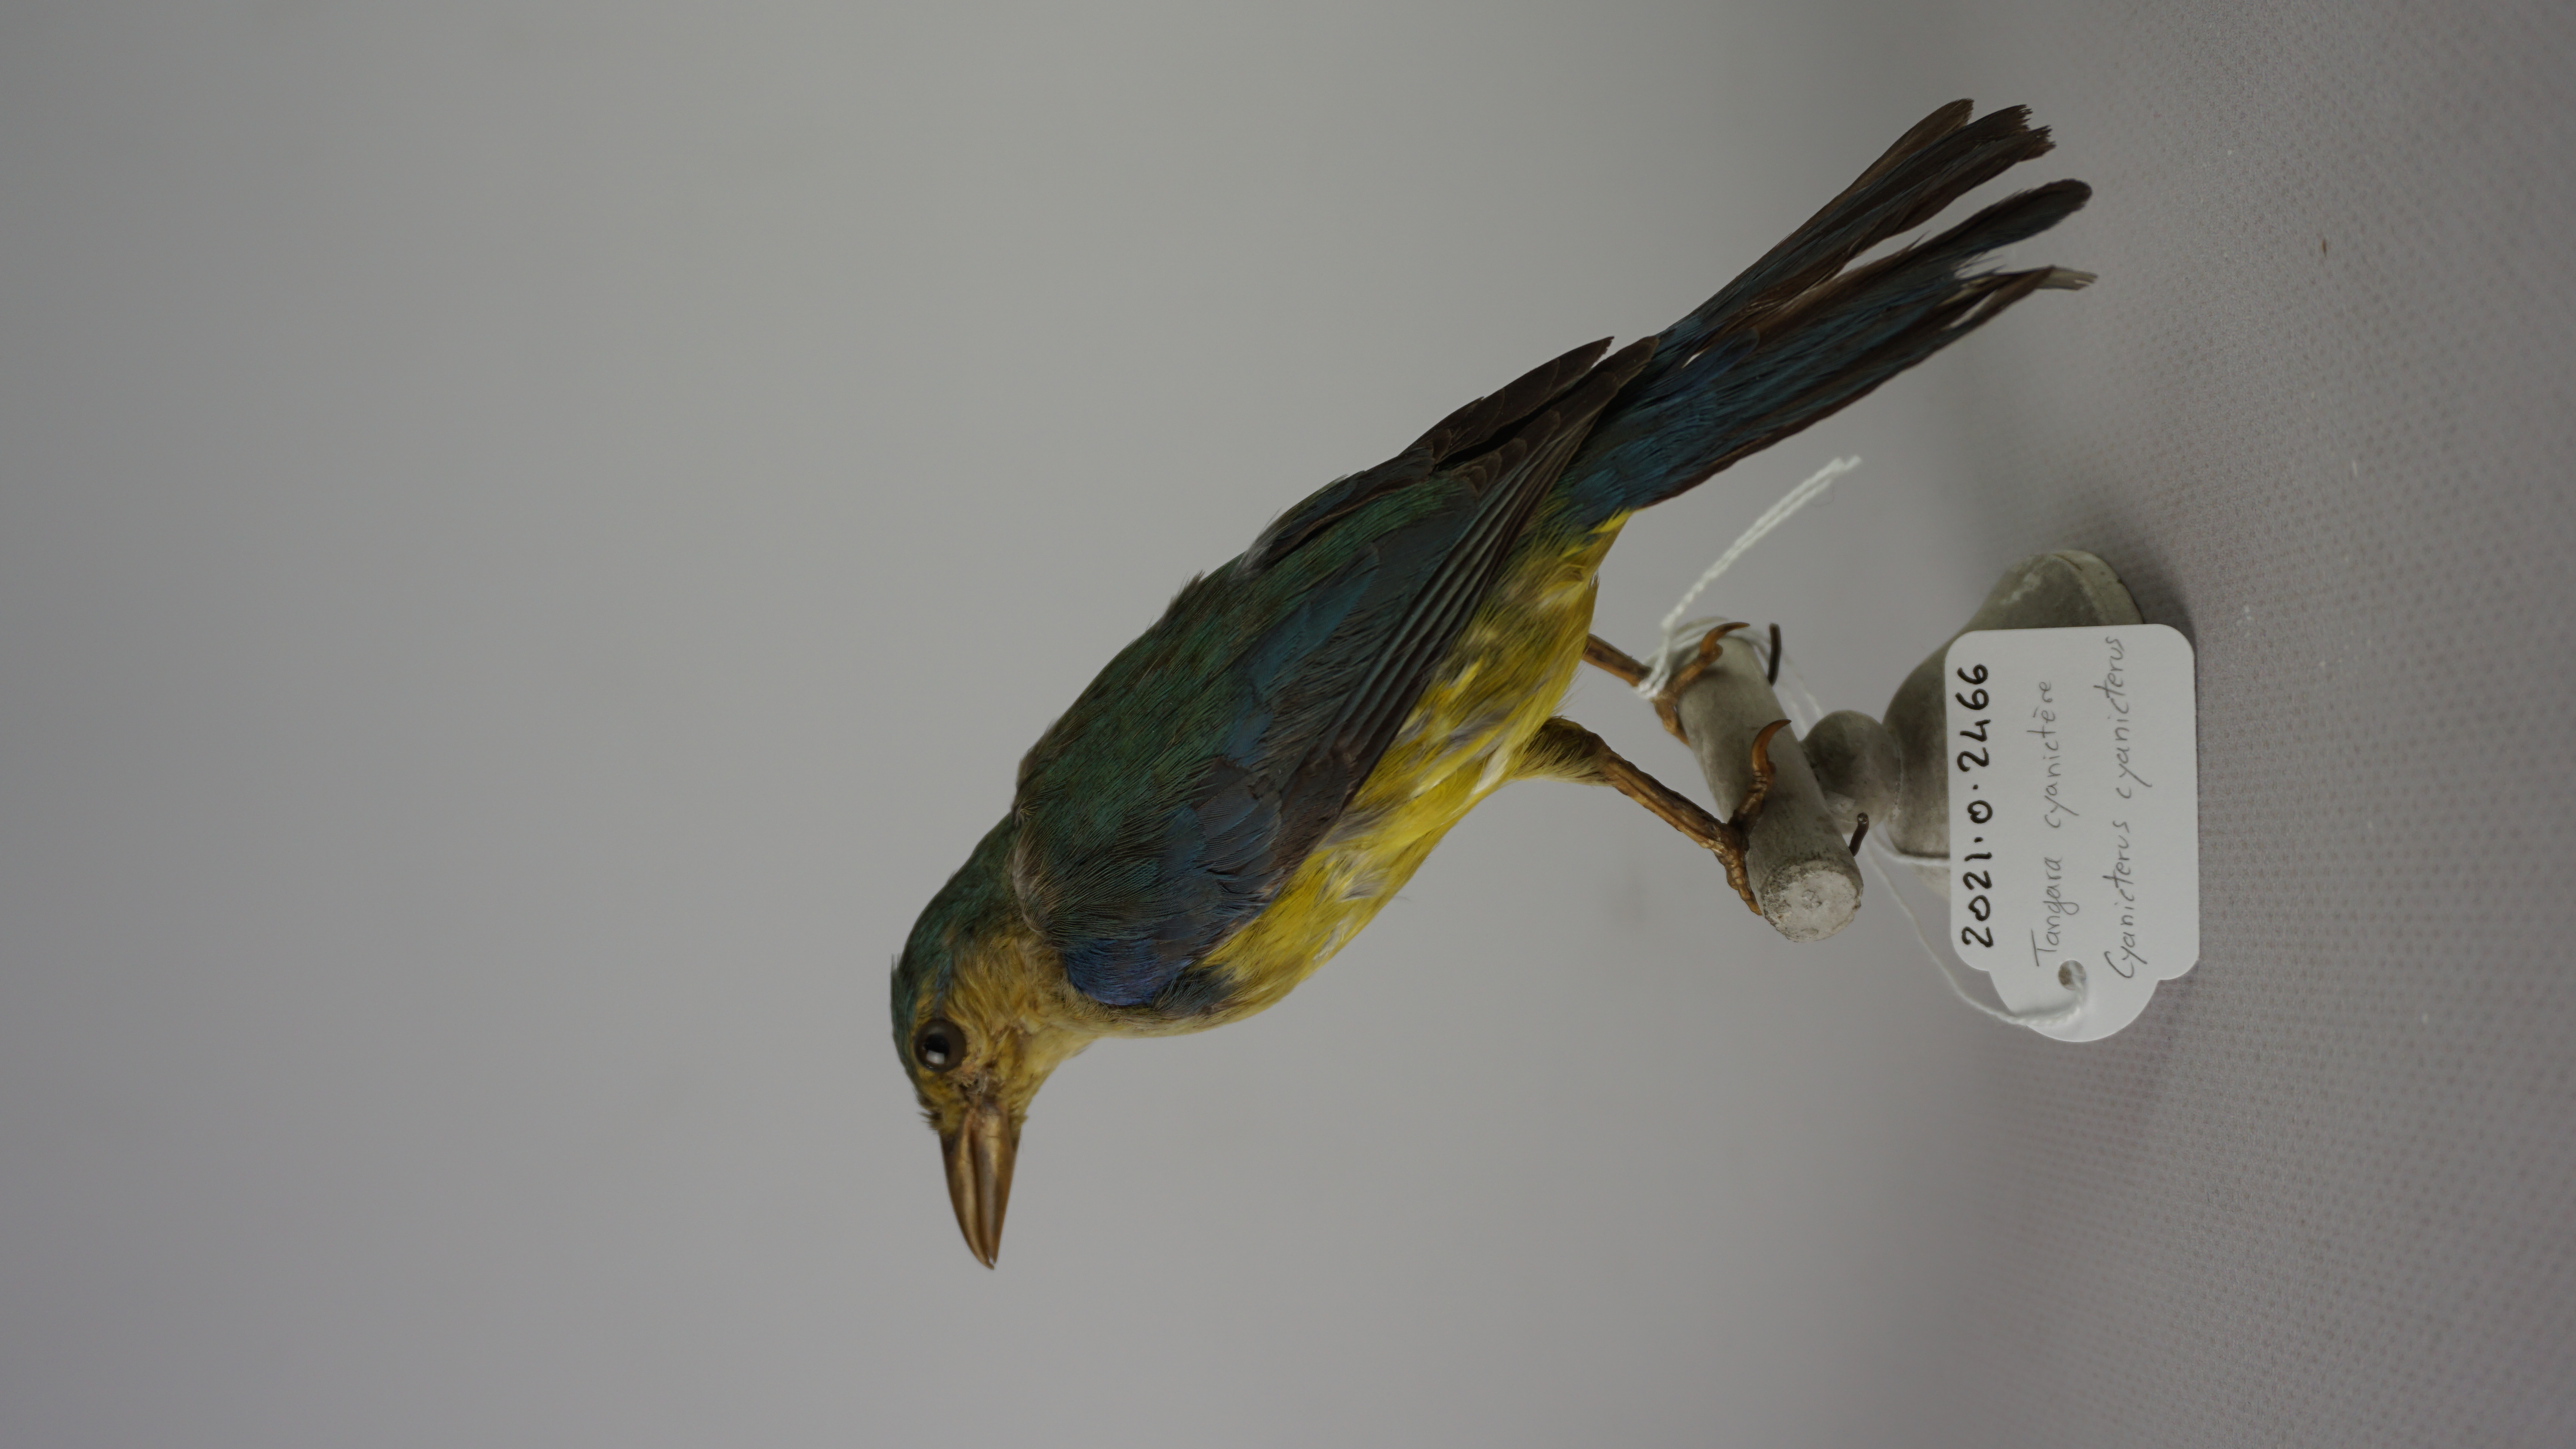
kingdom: Animalia
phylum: Chordata
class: Aves
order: Passeriformes
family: Thraupidae
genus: Cyanicterus
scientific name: Cyanicterus cyanicterus
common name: Blue-backed tanager
